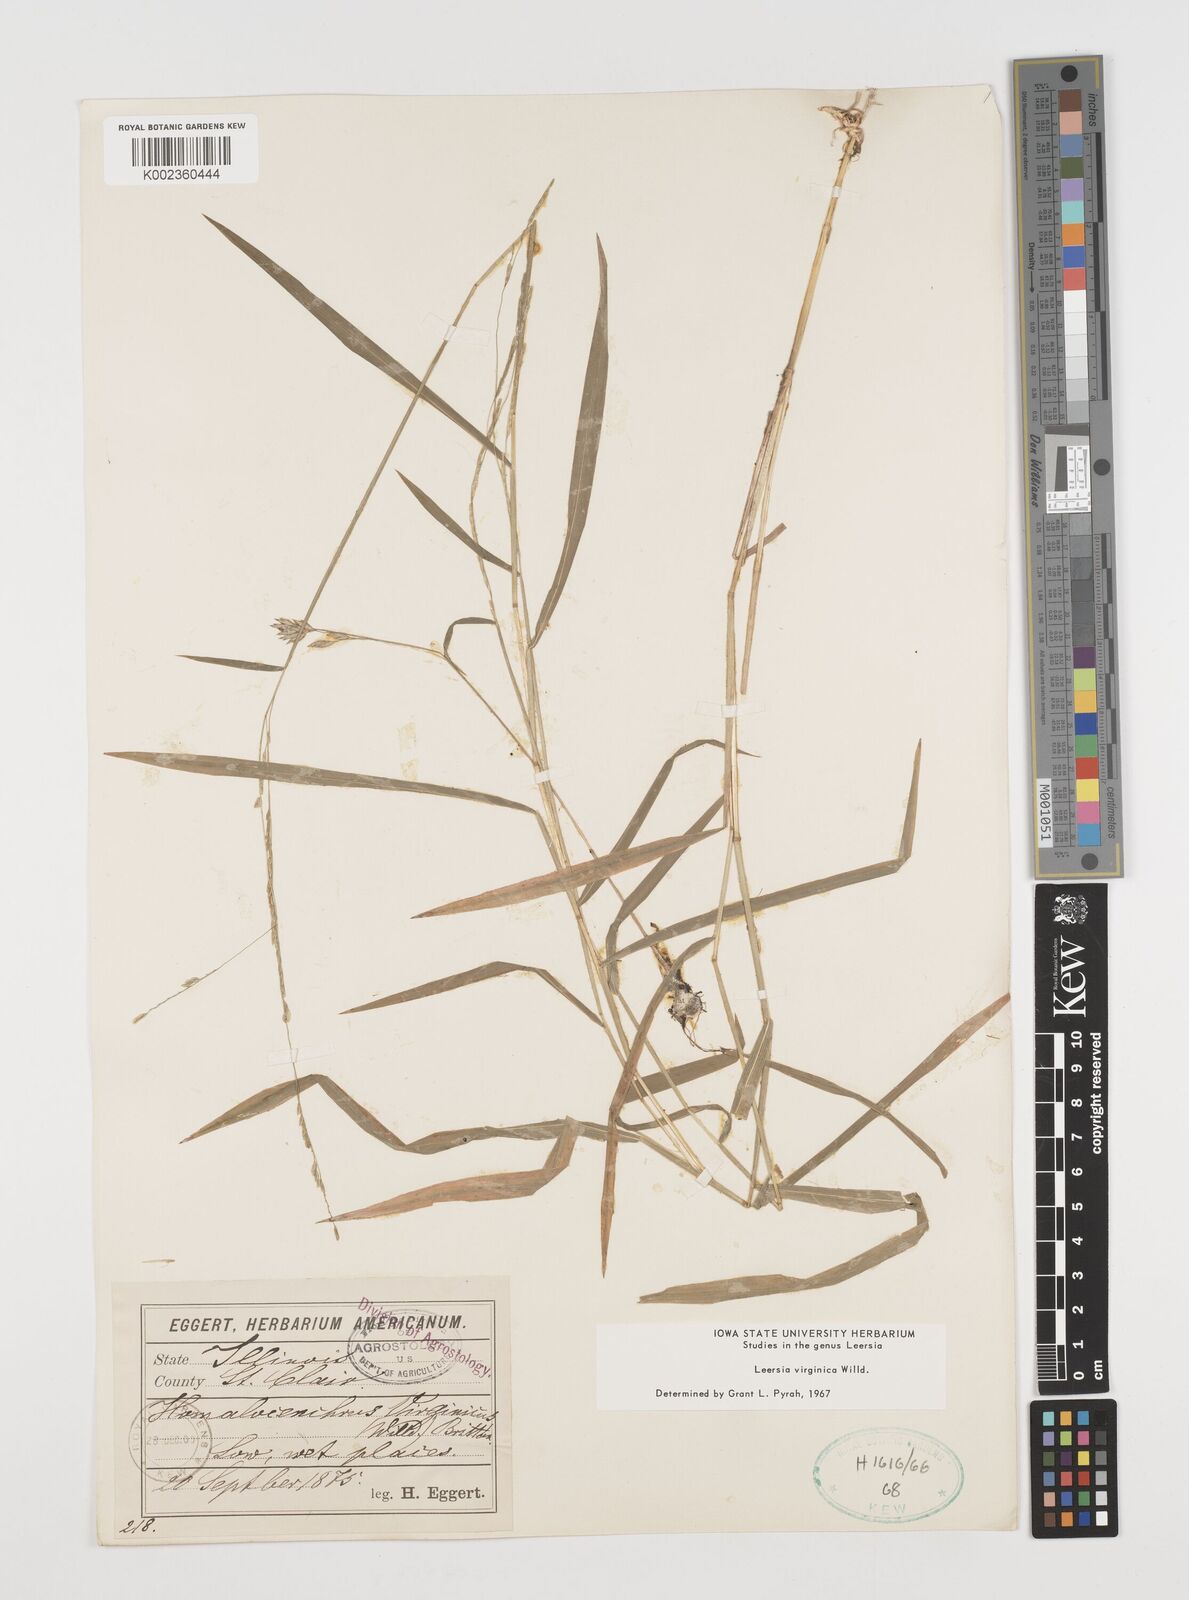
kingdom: Plantae
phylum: Tracheophyta
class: Liliopsida
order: Poales
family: Poaceae
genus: Leersia
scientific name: Leersia virginica
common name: White cutgrass
